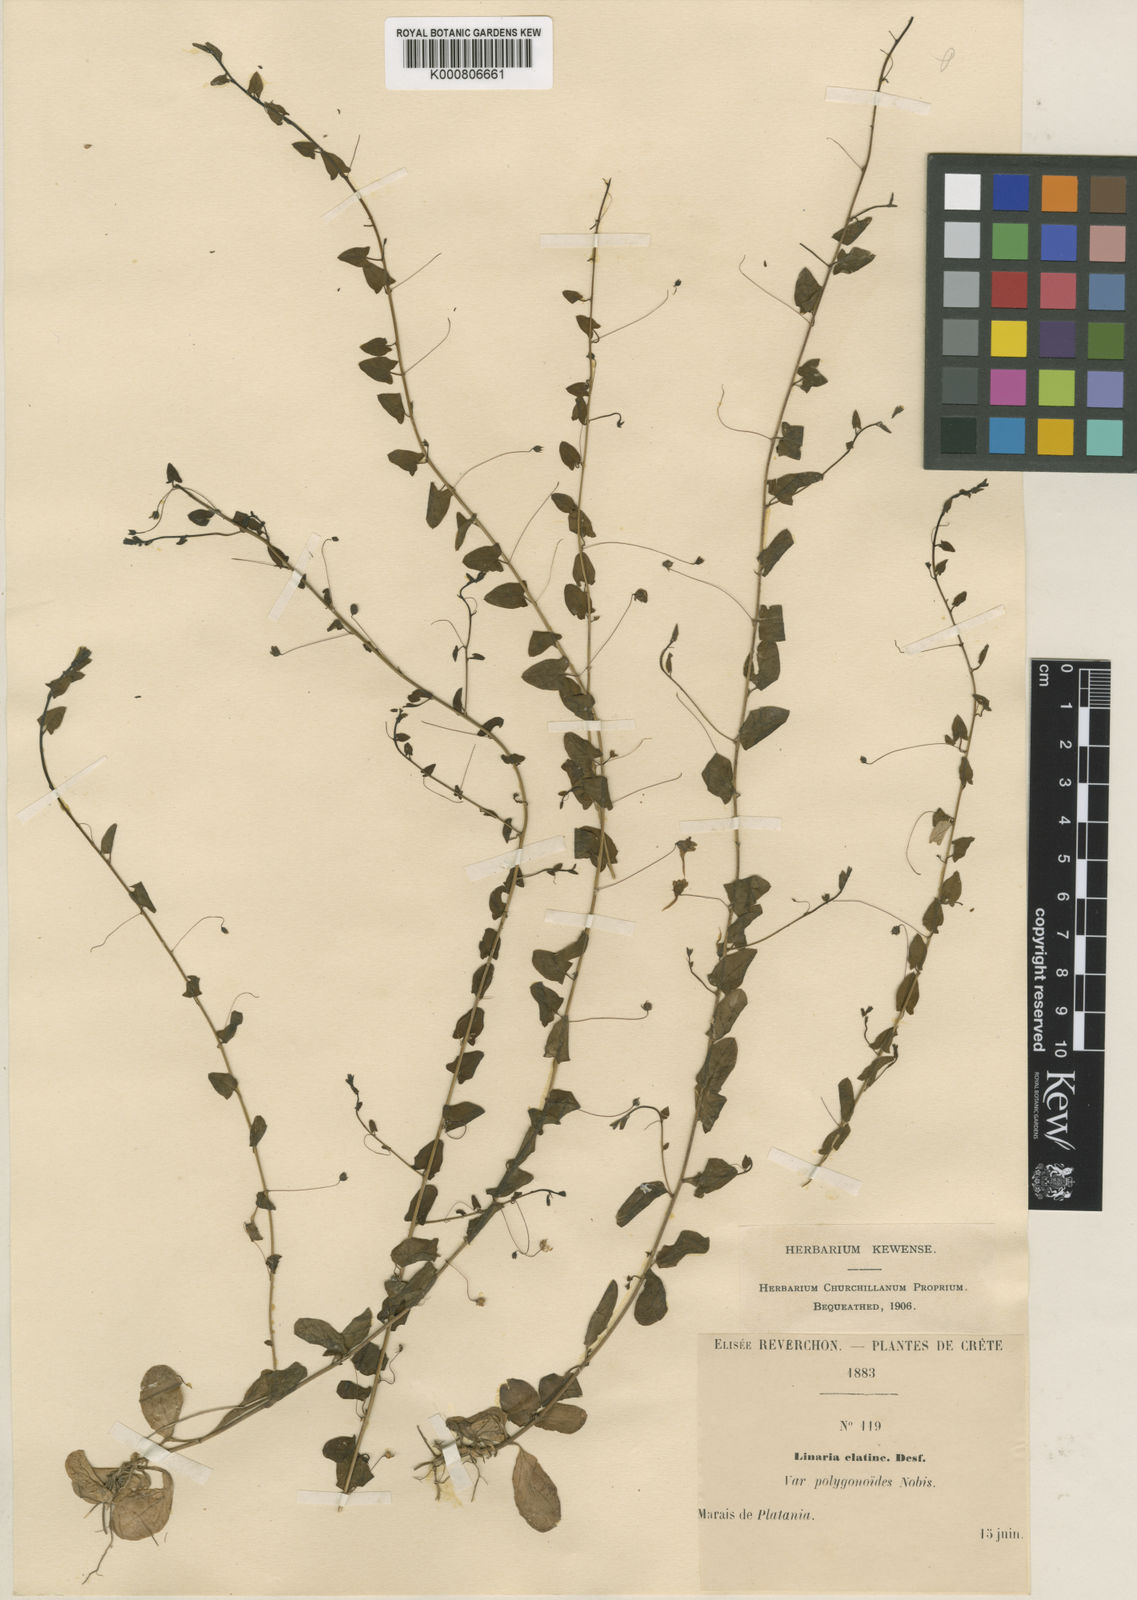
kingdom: Plantae
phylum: Tracheophyta
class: Magnoliopsida
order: Lamiales
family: Plantaginaceae
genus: Chaenorhinum
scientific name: Chaenorhinum
